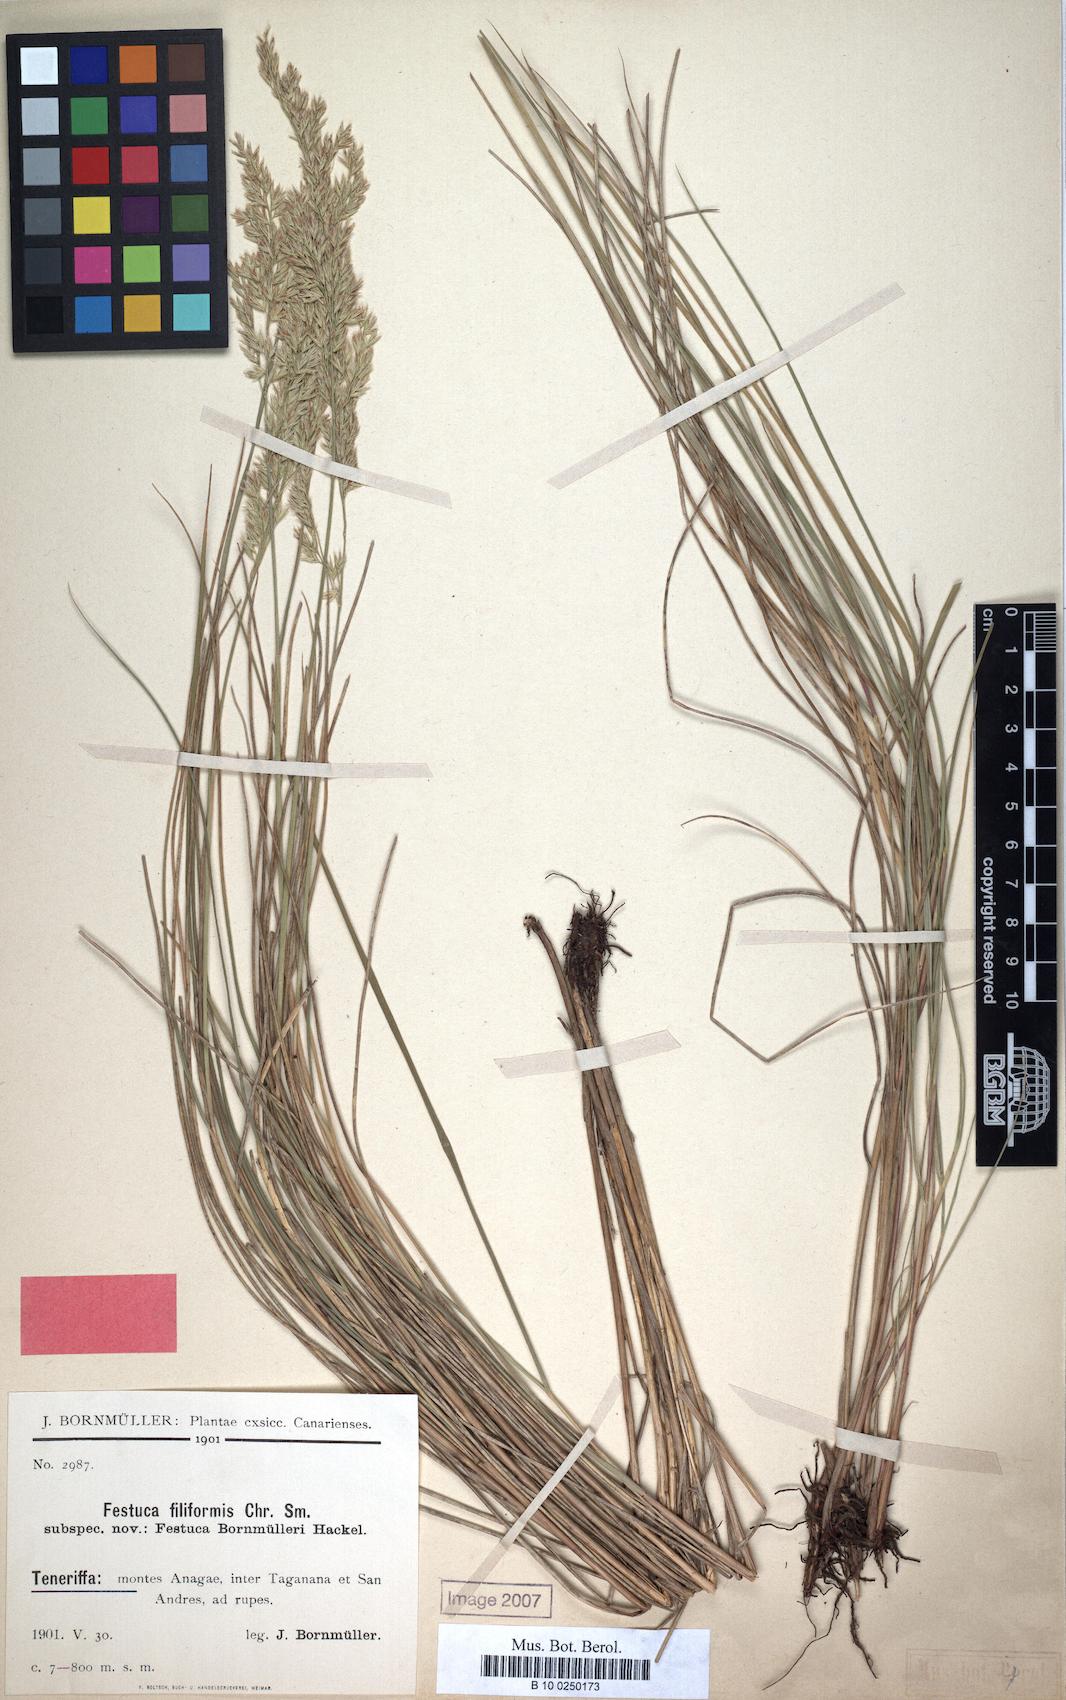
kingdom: Plantae
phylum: Tracheophyta
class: Liliopsida
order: Poales
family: Poaceae
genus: Festuca
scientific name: Festuca agustini
